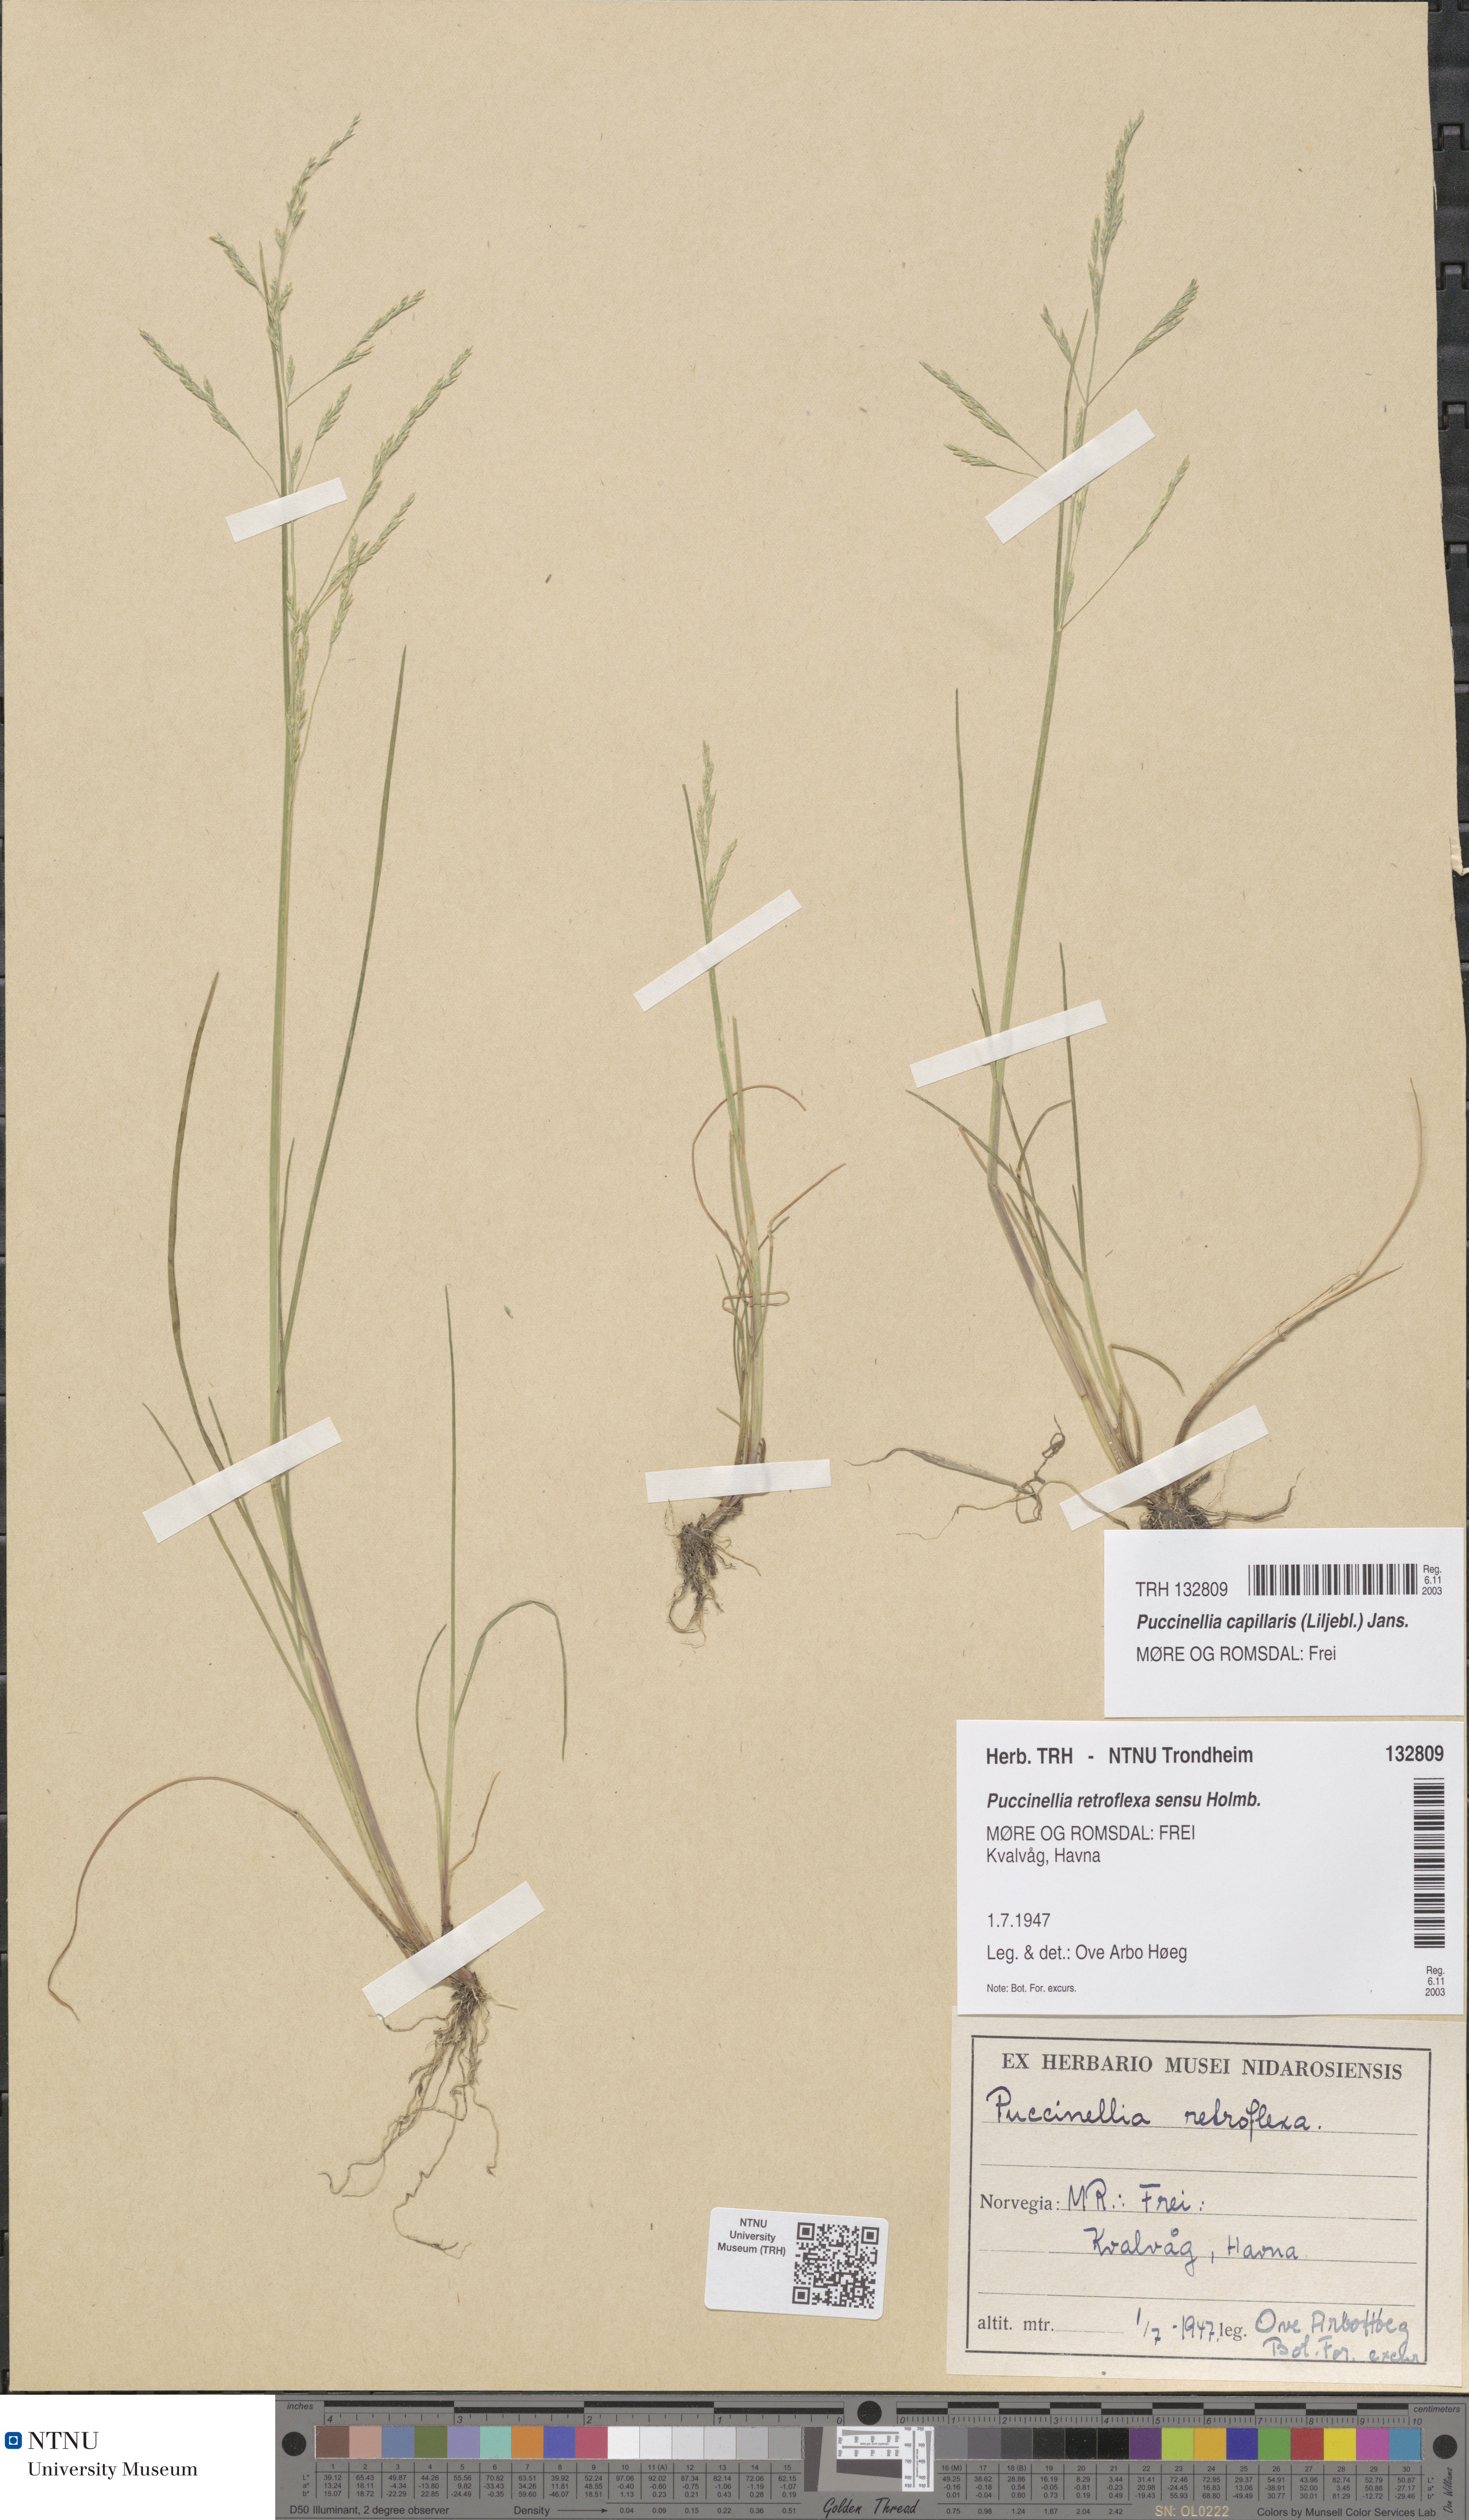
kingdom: Plantae
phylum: Tracheophyta
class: Liliopsida
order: Poales
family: Poaceae
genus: Puccinellia
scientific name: Puccinellia distans
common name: Weeping alkaligrass
